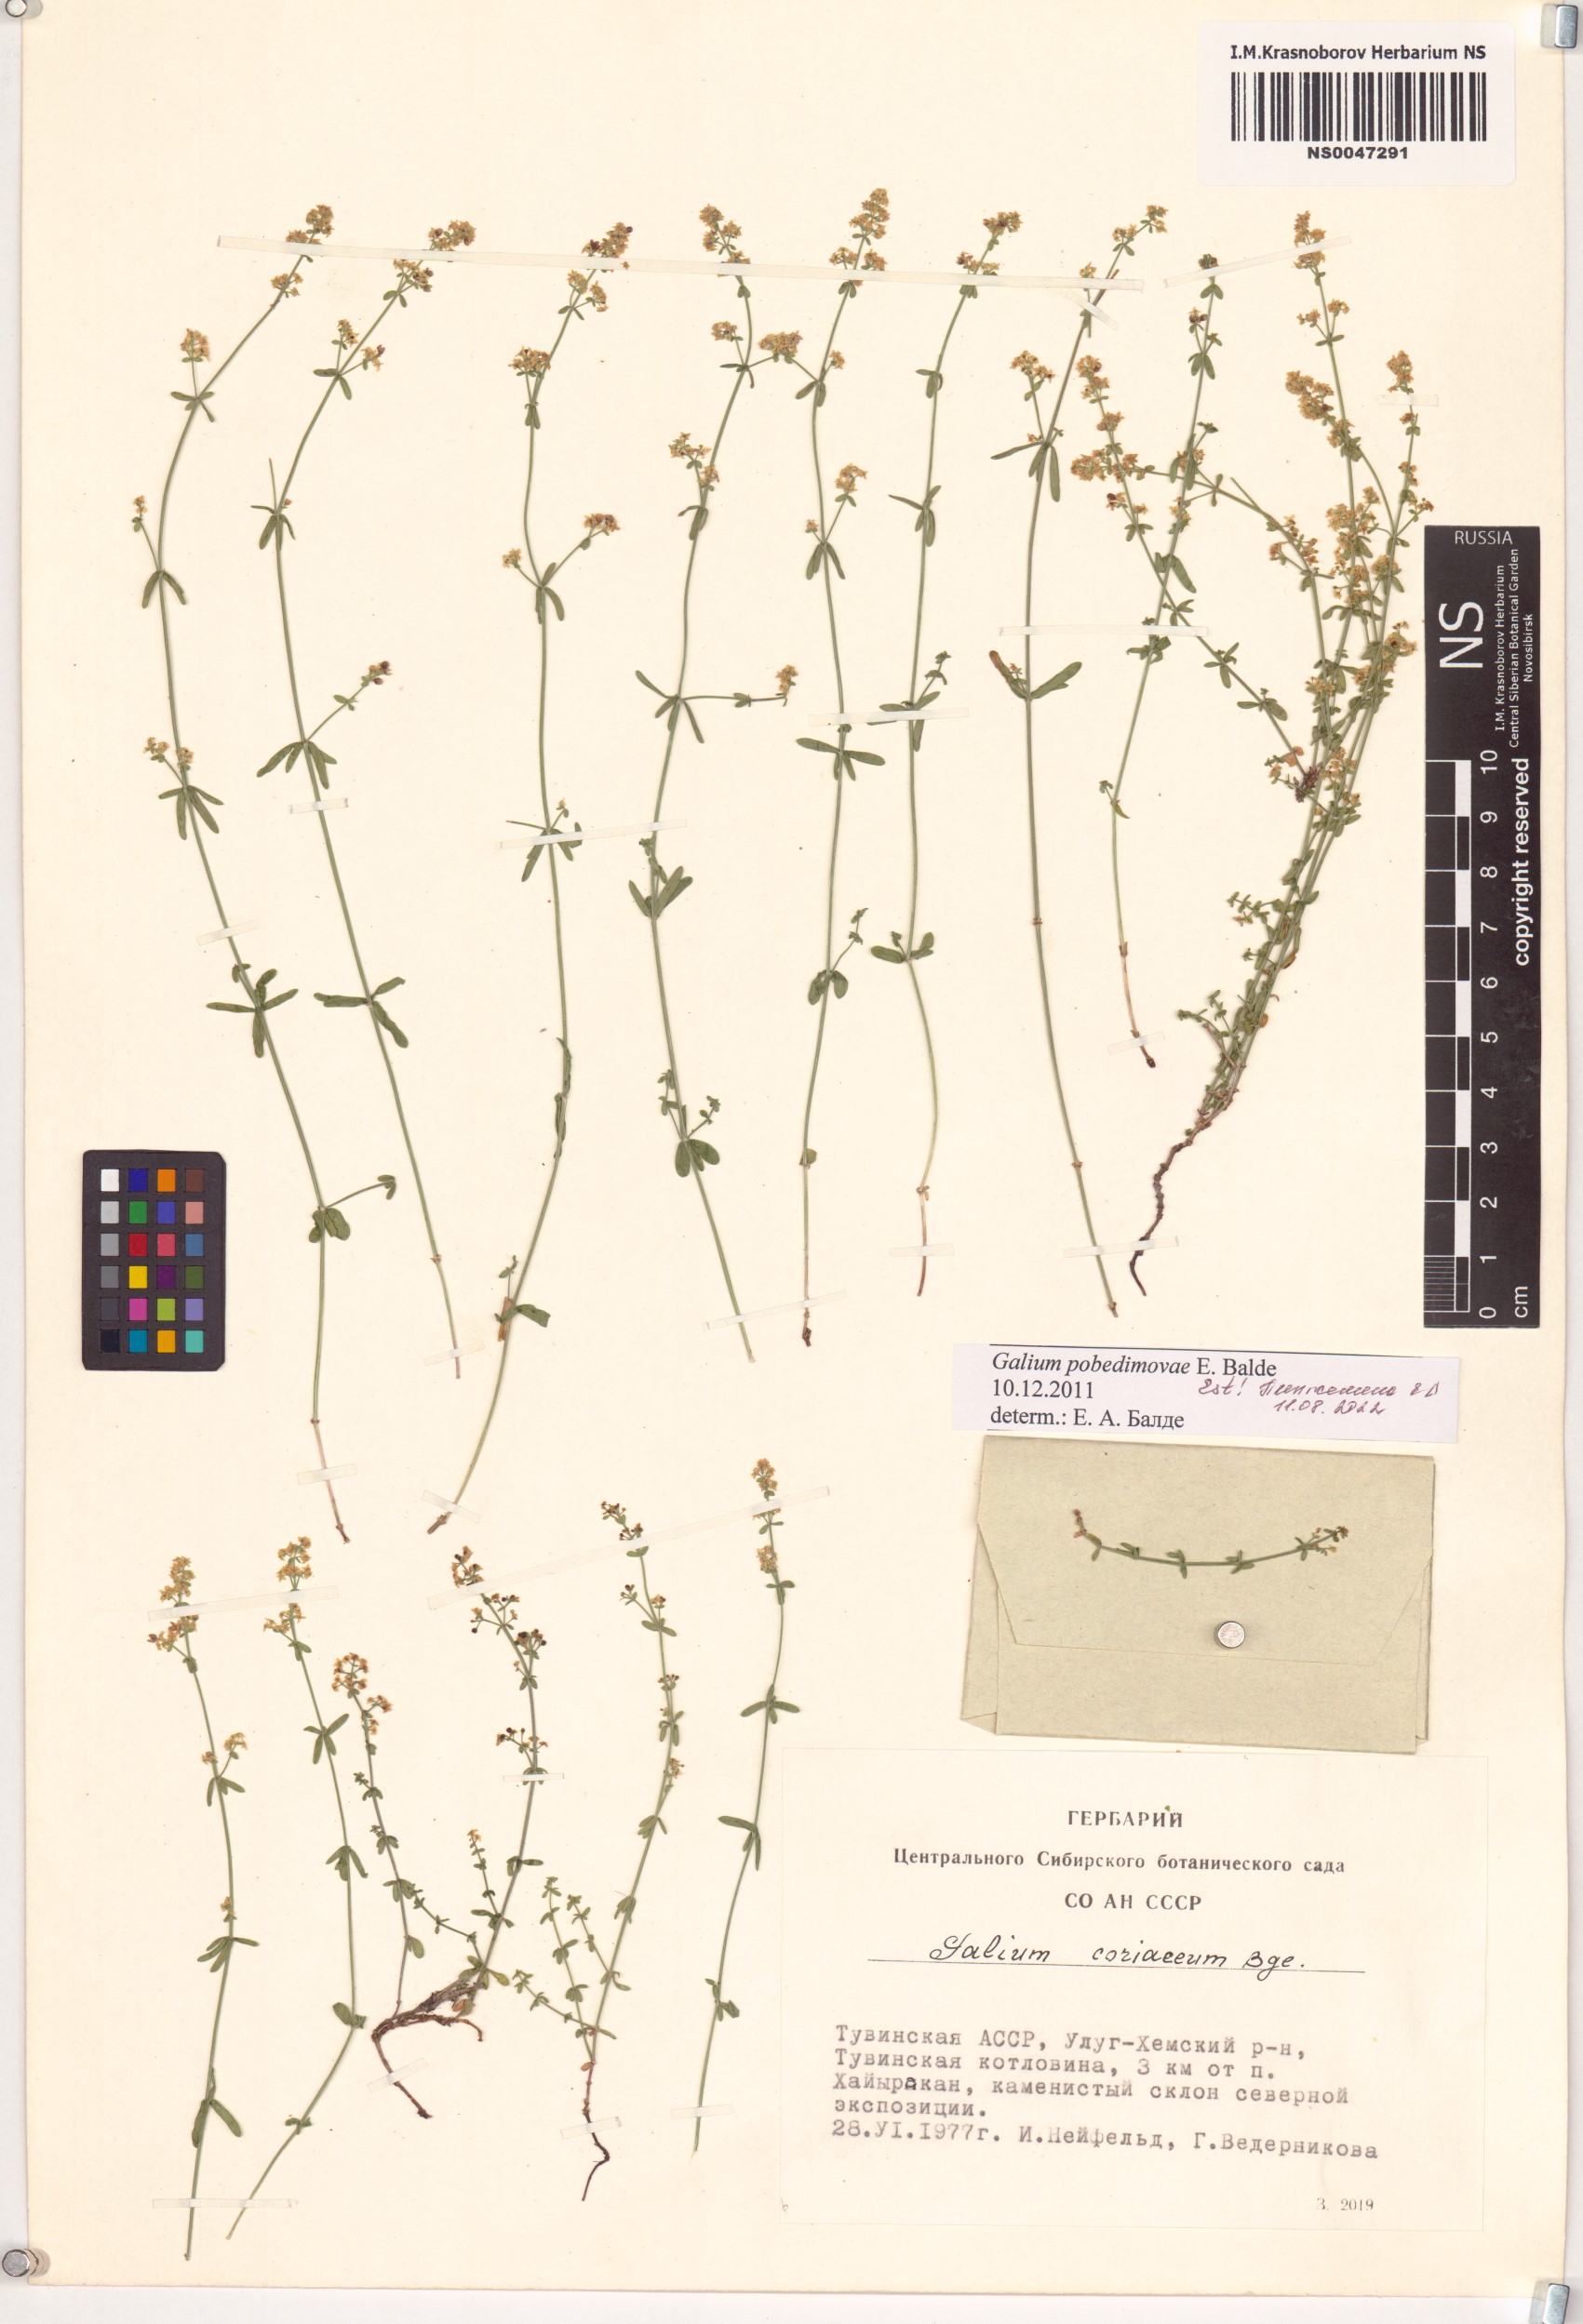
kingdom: Plantae
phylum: Tracheophyta
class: Magnoliopsida
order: Gentianales
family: Rubiaceae
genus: Galium
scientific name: Galium pobedimovae
